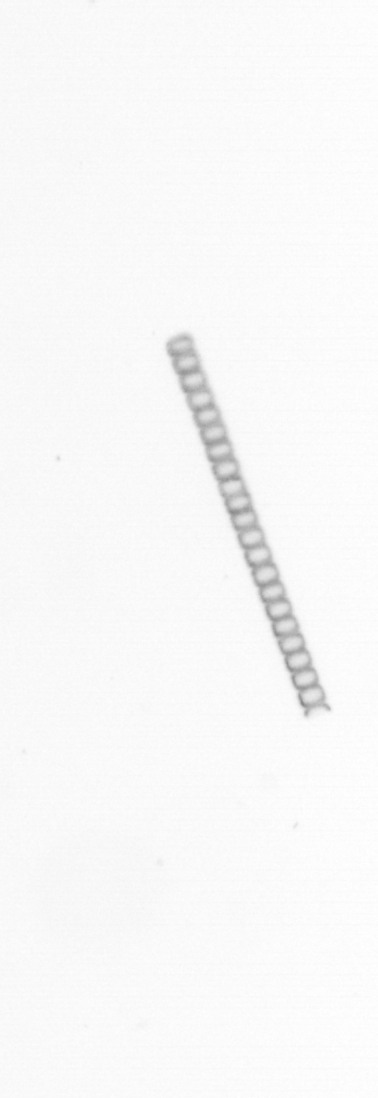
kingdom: Chromista
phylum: Ochrophyta
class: Bacillariophyceae
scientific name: Bacillariophyceae
